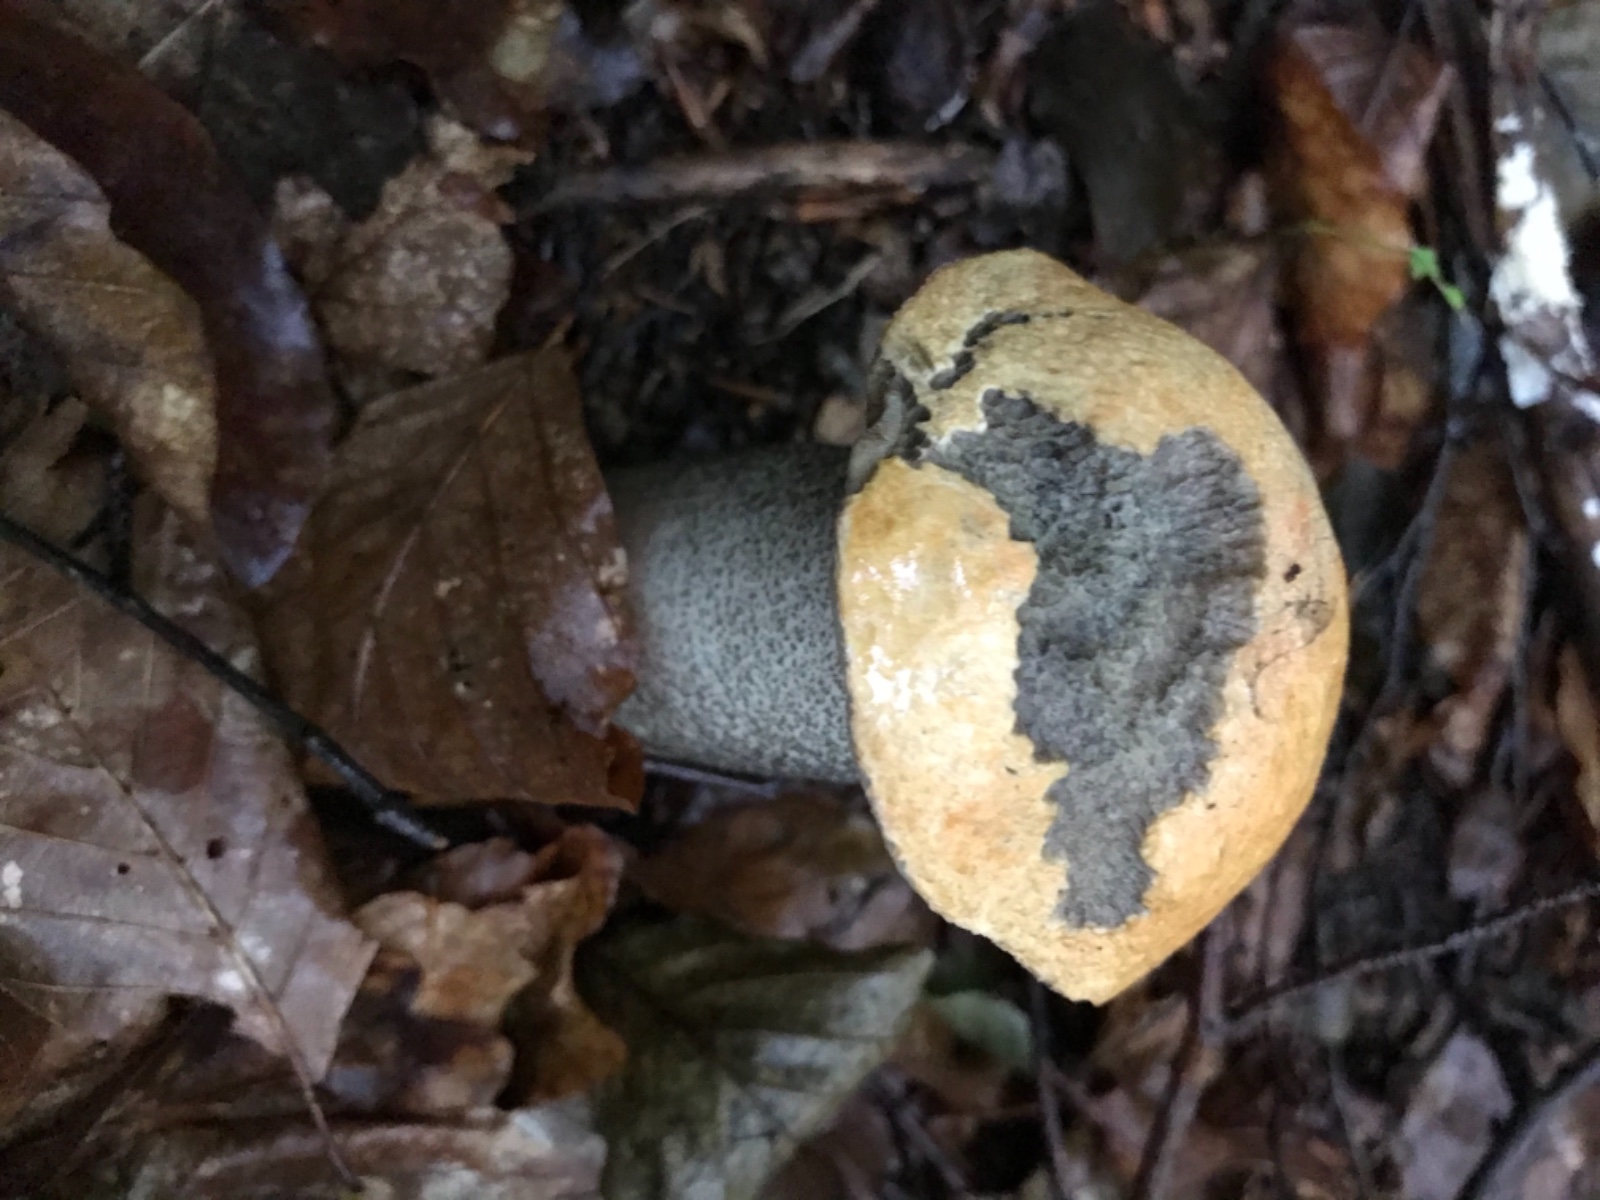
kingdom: Fungi
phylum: Basidiomycota
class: Agaricomycetes
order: Boletales
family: Boletaceae
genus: Leccinum
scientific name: Leccinum versipelle
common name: orange skælrørhat
